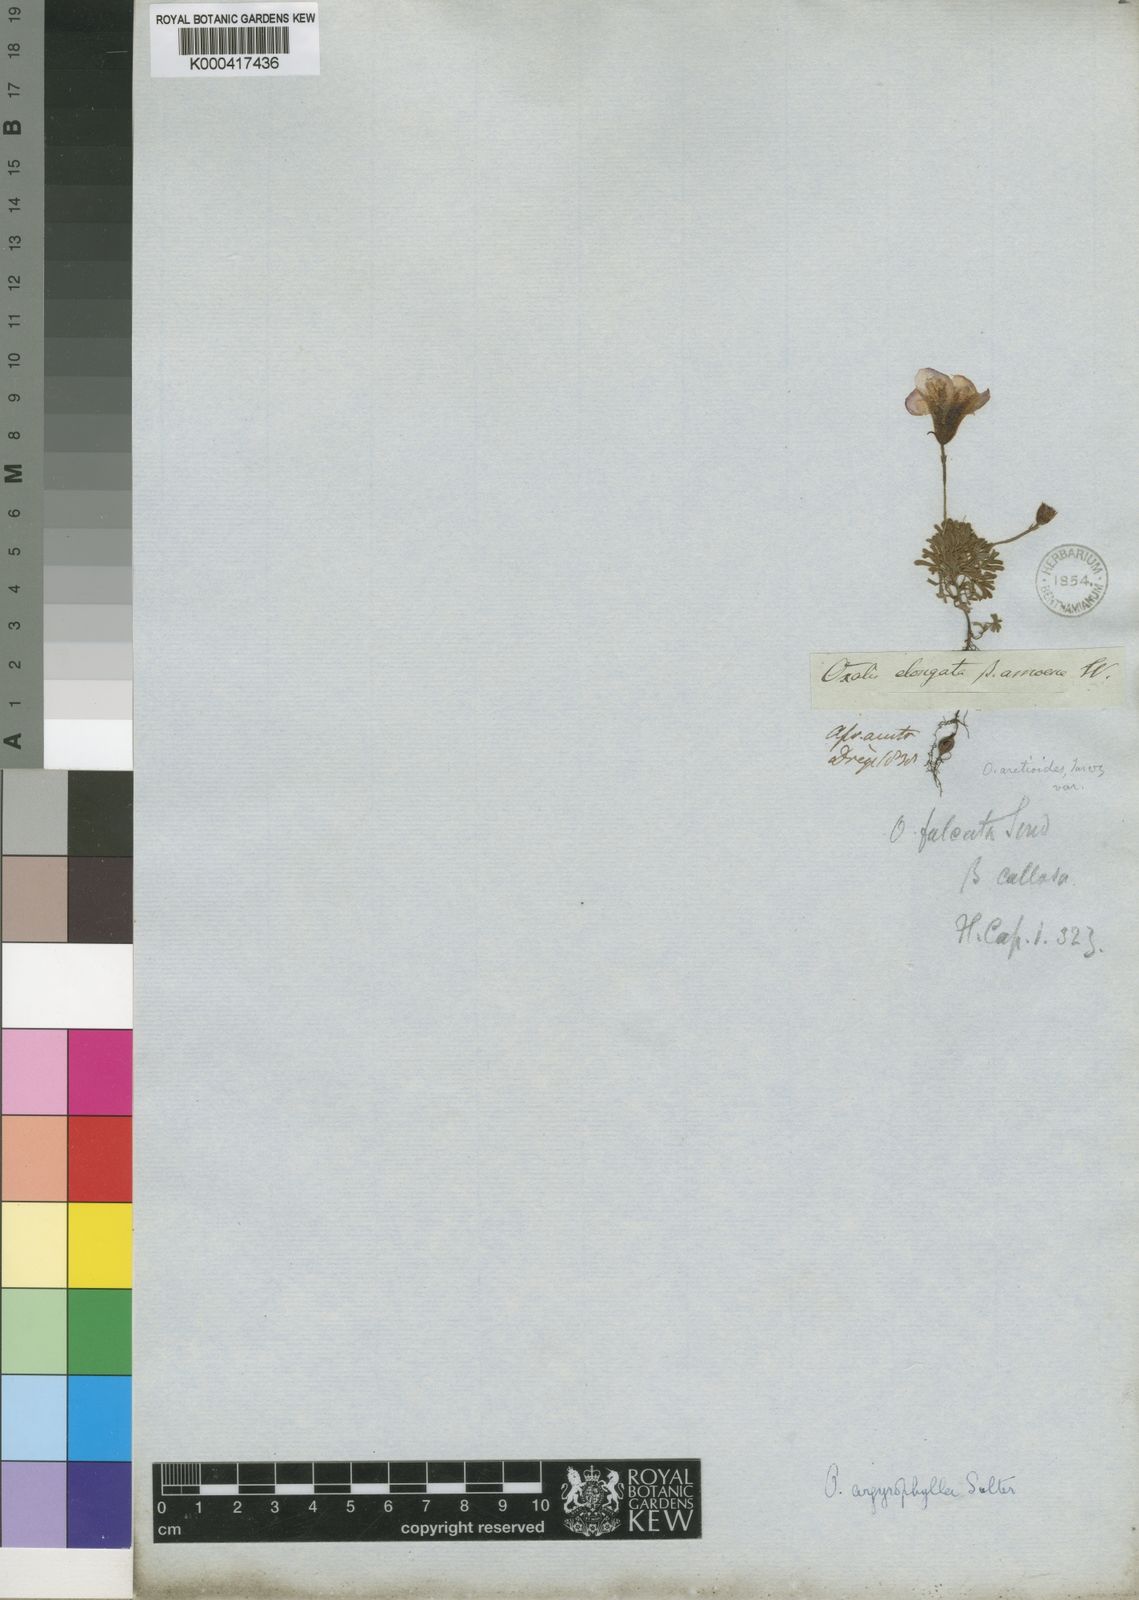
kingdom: Plantae
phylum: Tracheophyta
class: Magnoliopsida
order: Oxalidales
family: Oxalidaceae
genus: Oxalis
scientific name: Oxalis argyrophylla
